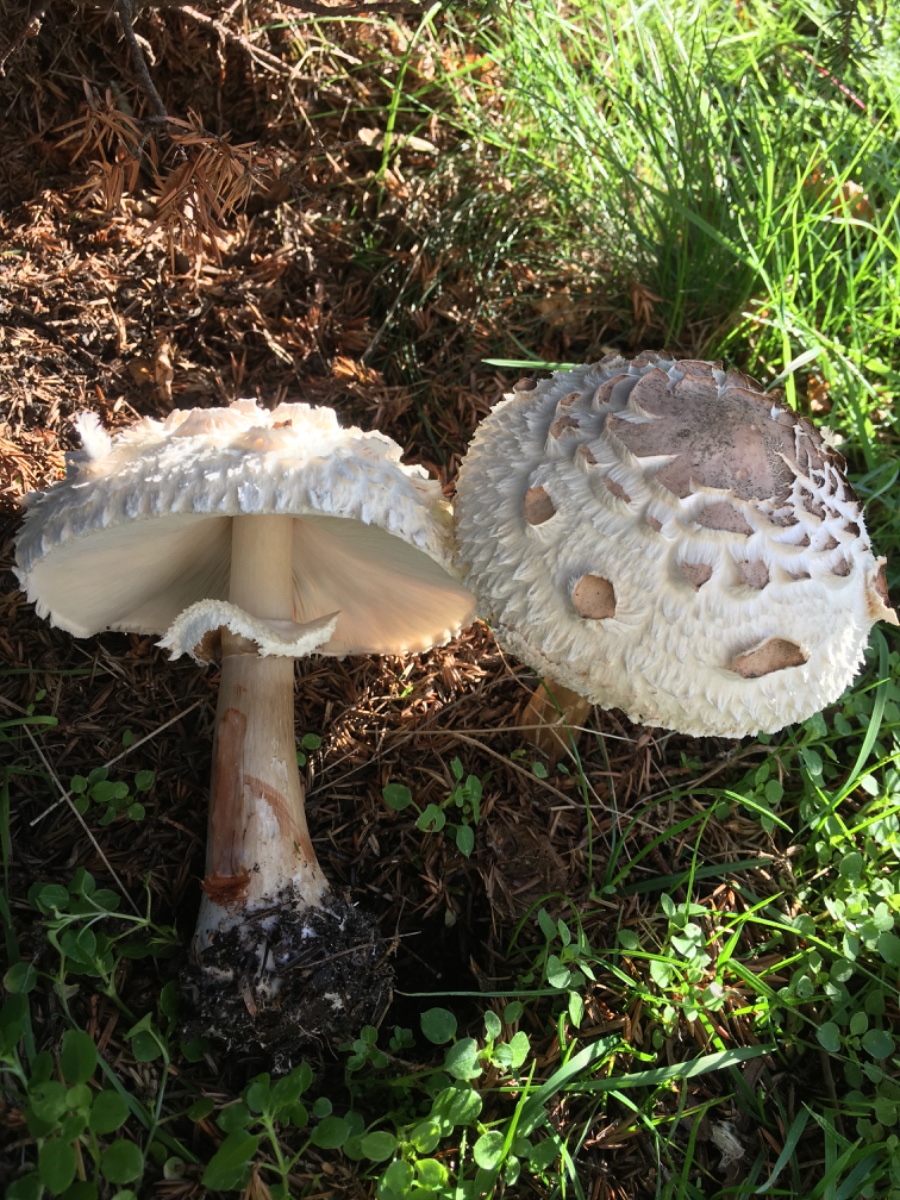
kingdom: Fungi
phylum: Basidiomycota
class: Agaricomycetes
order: Agaricales
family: Agaricaceae
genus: Chlorophyllum
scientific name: Chlorophyllum rhacodes
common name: ægte rabarberhat
